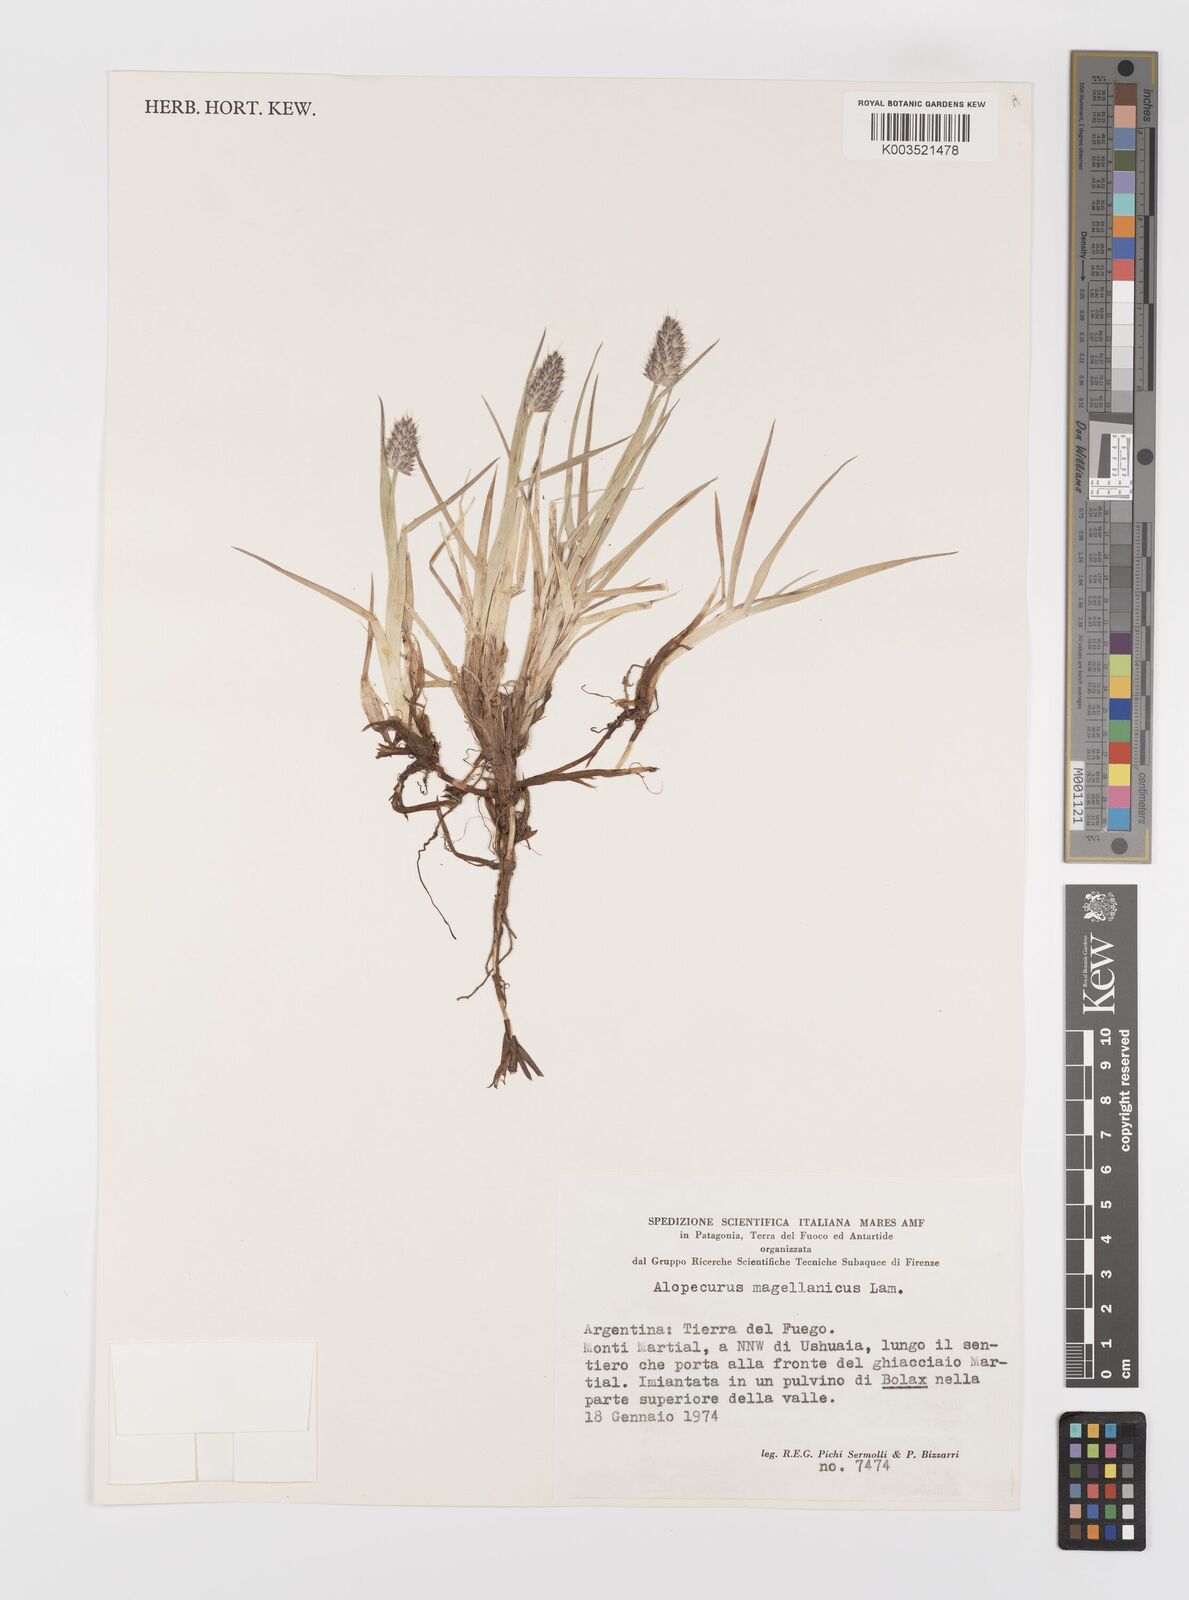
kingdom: Plantae
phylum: Tracheophyta
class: Liliopsida
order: Poales
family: Poaceae
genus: Alopecurus
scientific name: Alopecurus magellanicus
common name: Alpine foxtail
